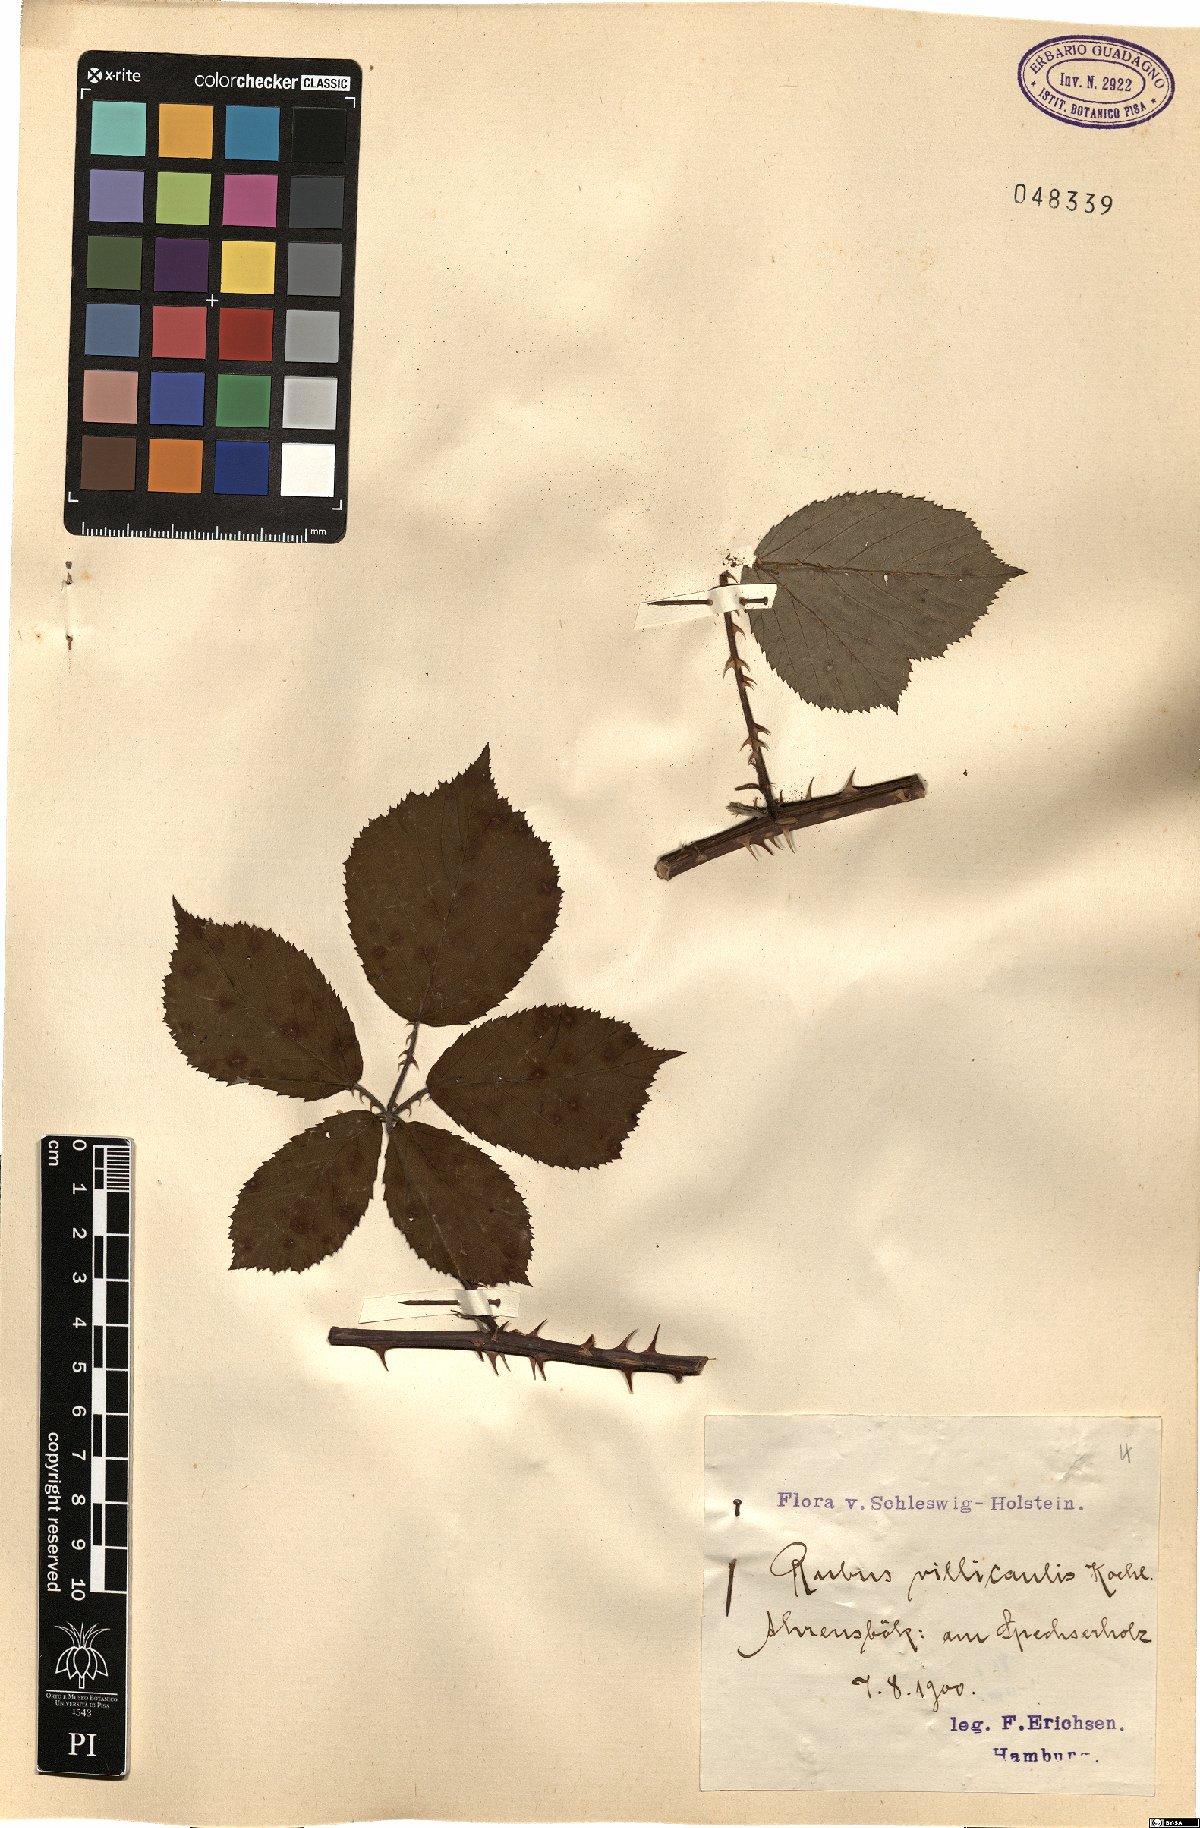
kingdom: Plantae
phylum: Tracheophyta
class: Magnoliopsida
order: Rosales
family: Rosaceae
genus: Rubus
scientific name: Rubus gracilis
